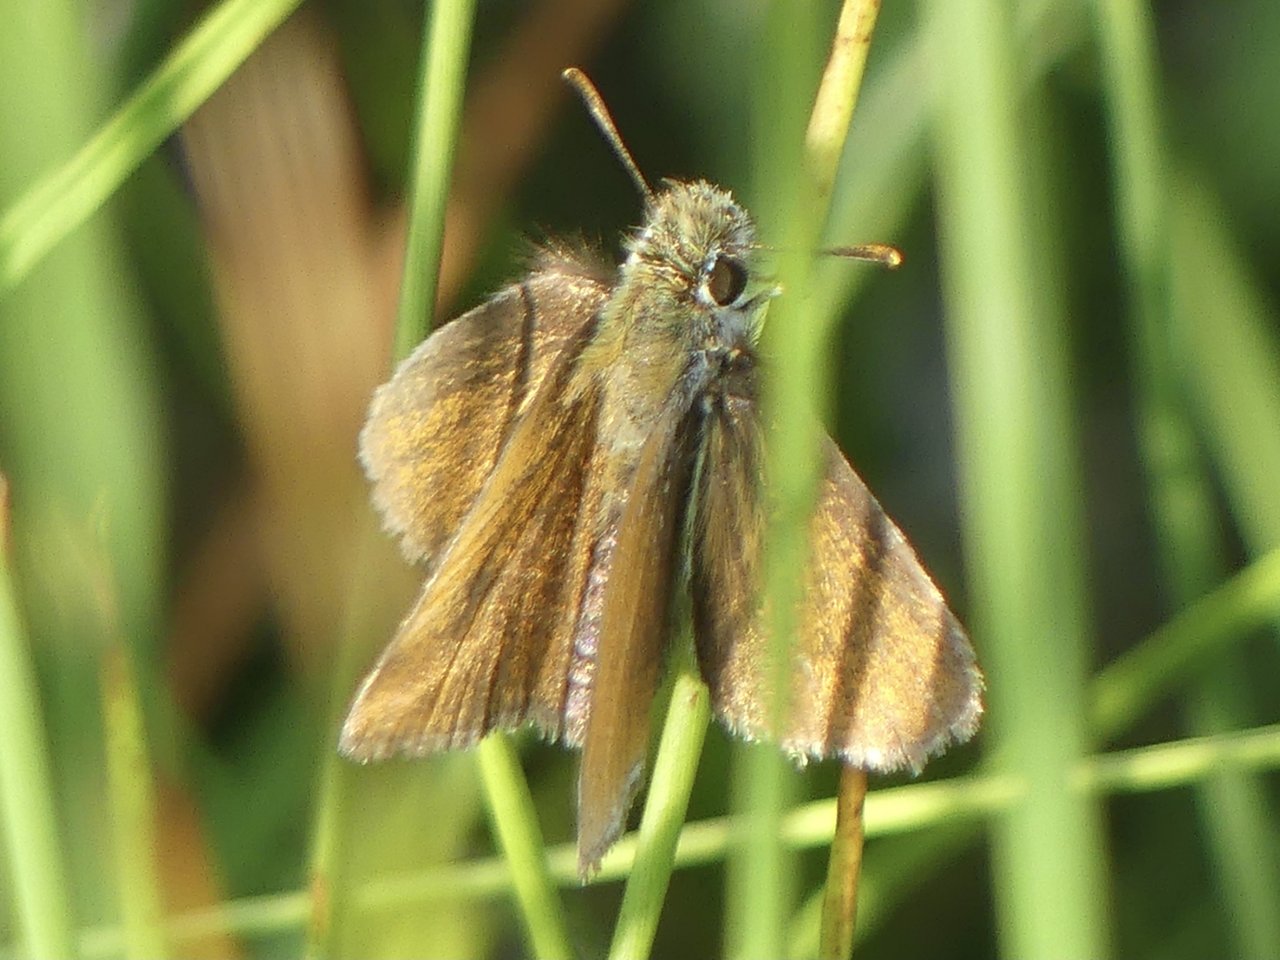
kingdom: Animalia
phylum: Arthropoda
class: Insecta
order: Lepidoptera
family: Hesperiidae
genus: Thymelicus
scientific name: Thymelicus lineola
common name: European Skipper
